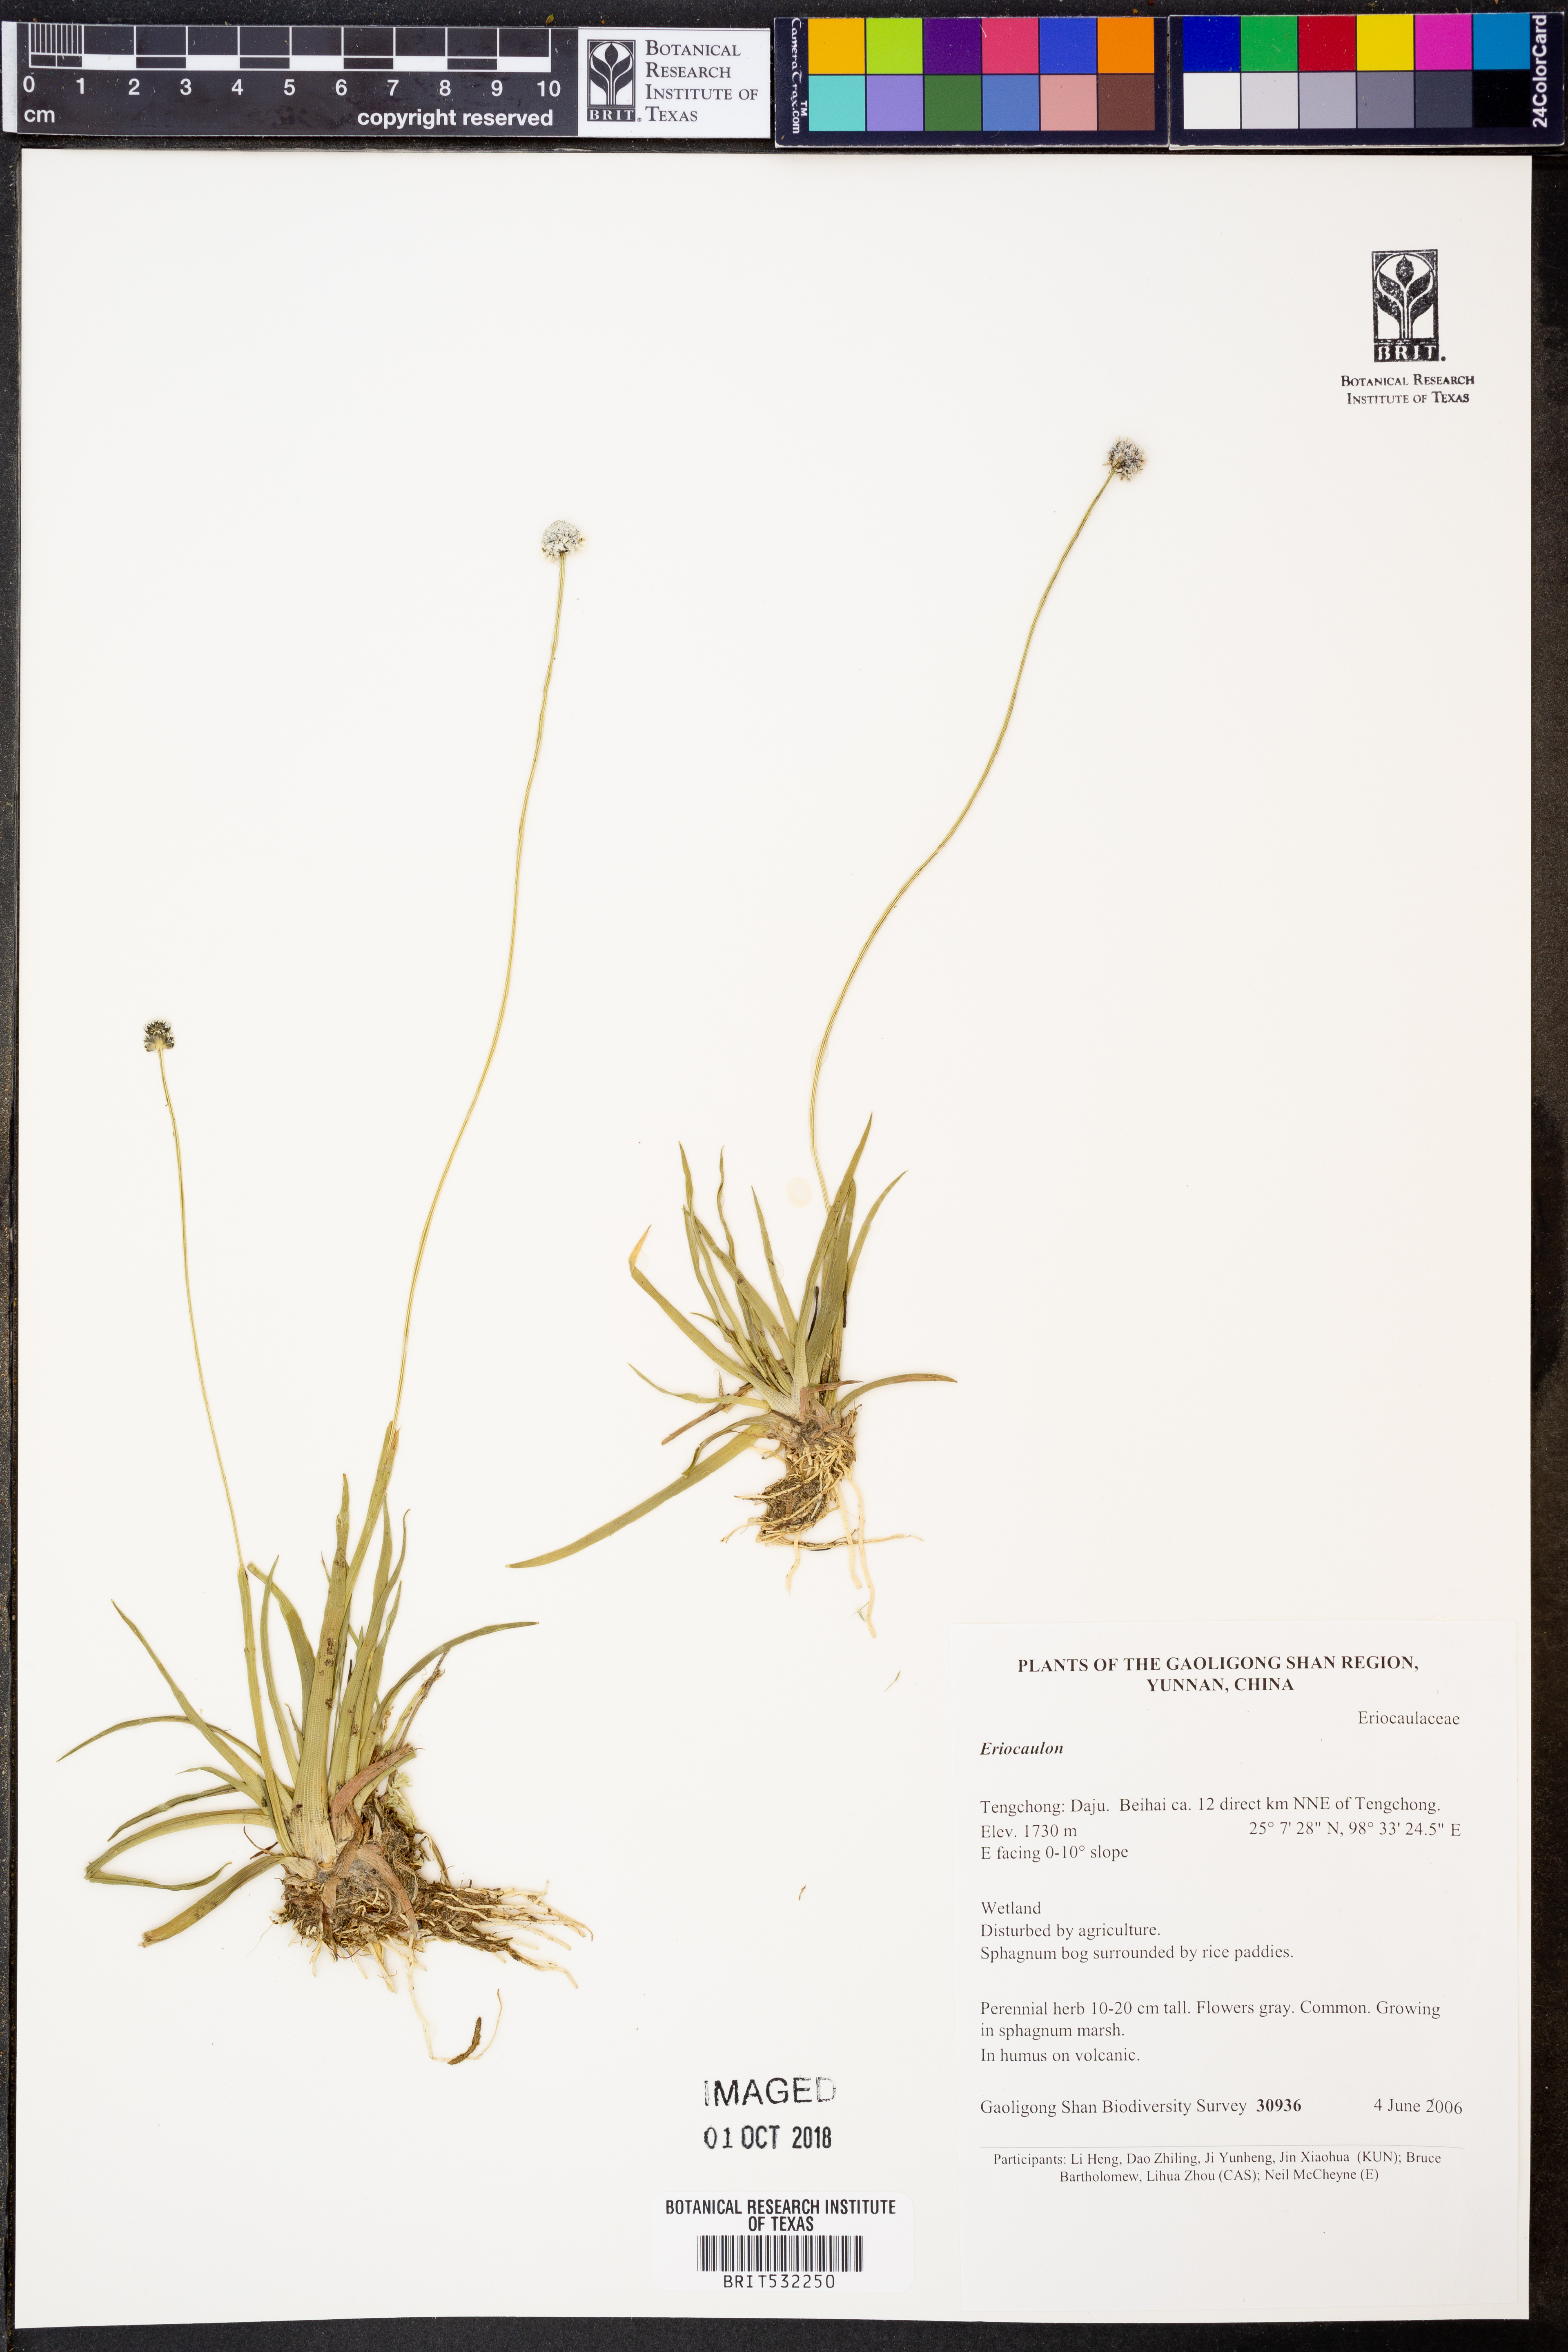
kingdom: Plantae
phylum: Tracheophyta
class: Liliopsida
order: Poales
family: Eriocaulaceae
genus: Eriocaulon
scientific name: Eriocaulon
